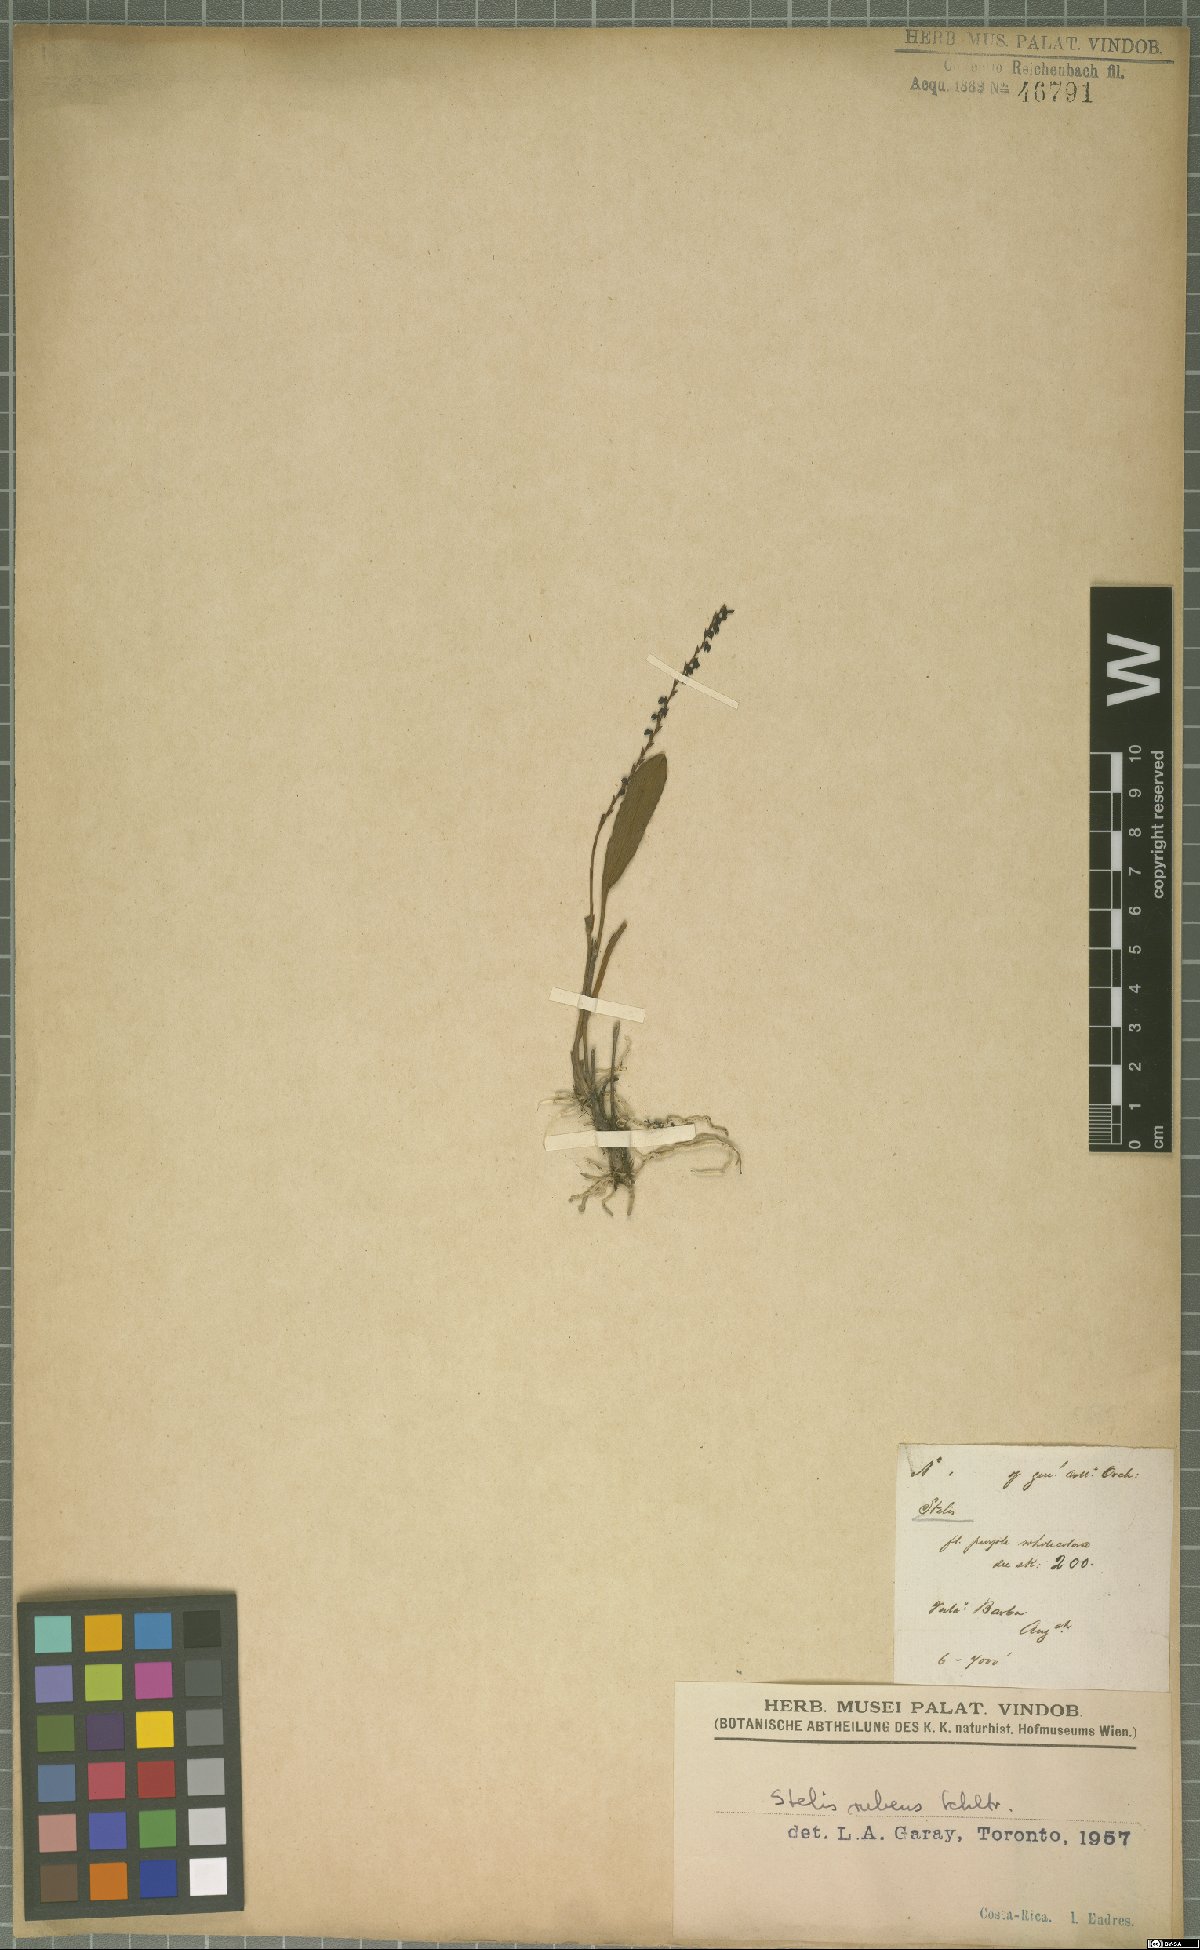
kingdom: Plantae
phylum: Tracheophyta
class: Liliopsida
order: Asparagales
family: Orchidaceae
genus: Stelis
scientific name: Stelis rubens
